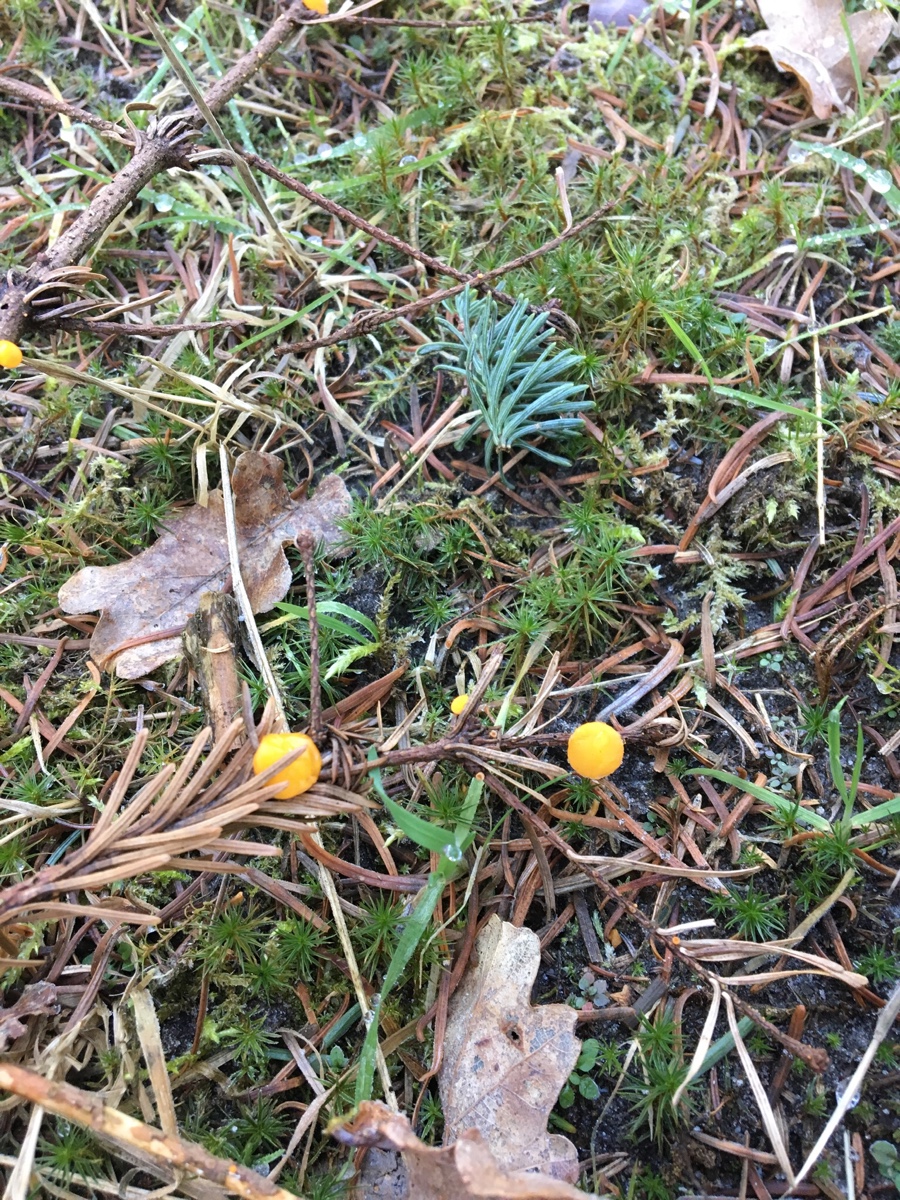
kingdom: Fungi
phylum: Ascomycota
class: Pezizomycetes
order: Pezizales
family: Sarcoscyphaceae
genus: Pithya
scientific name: Pithya vulgaris
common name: stor dukatbæger
